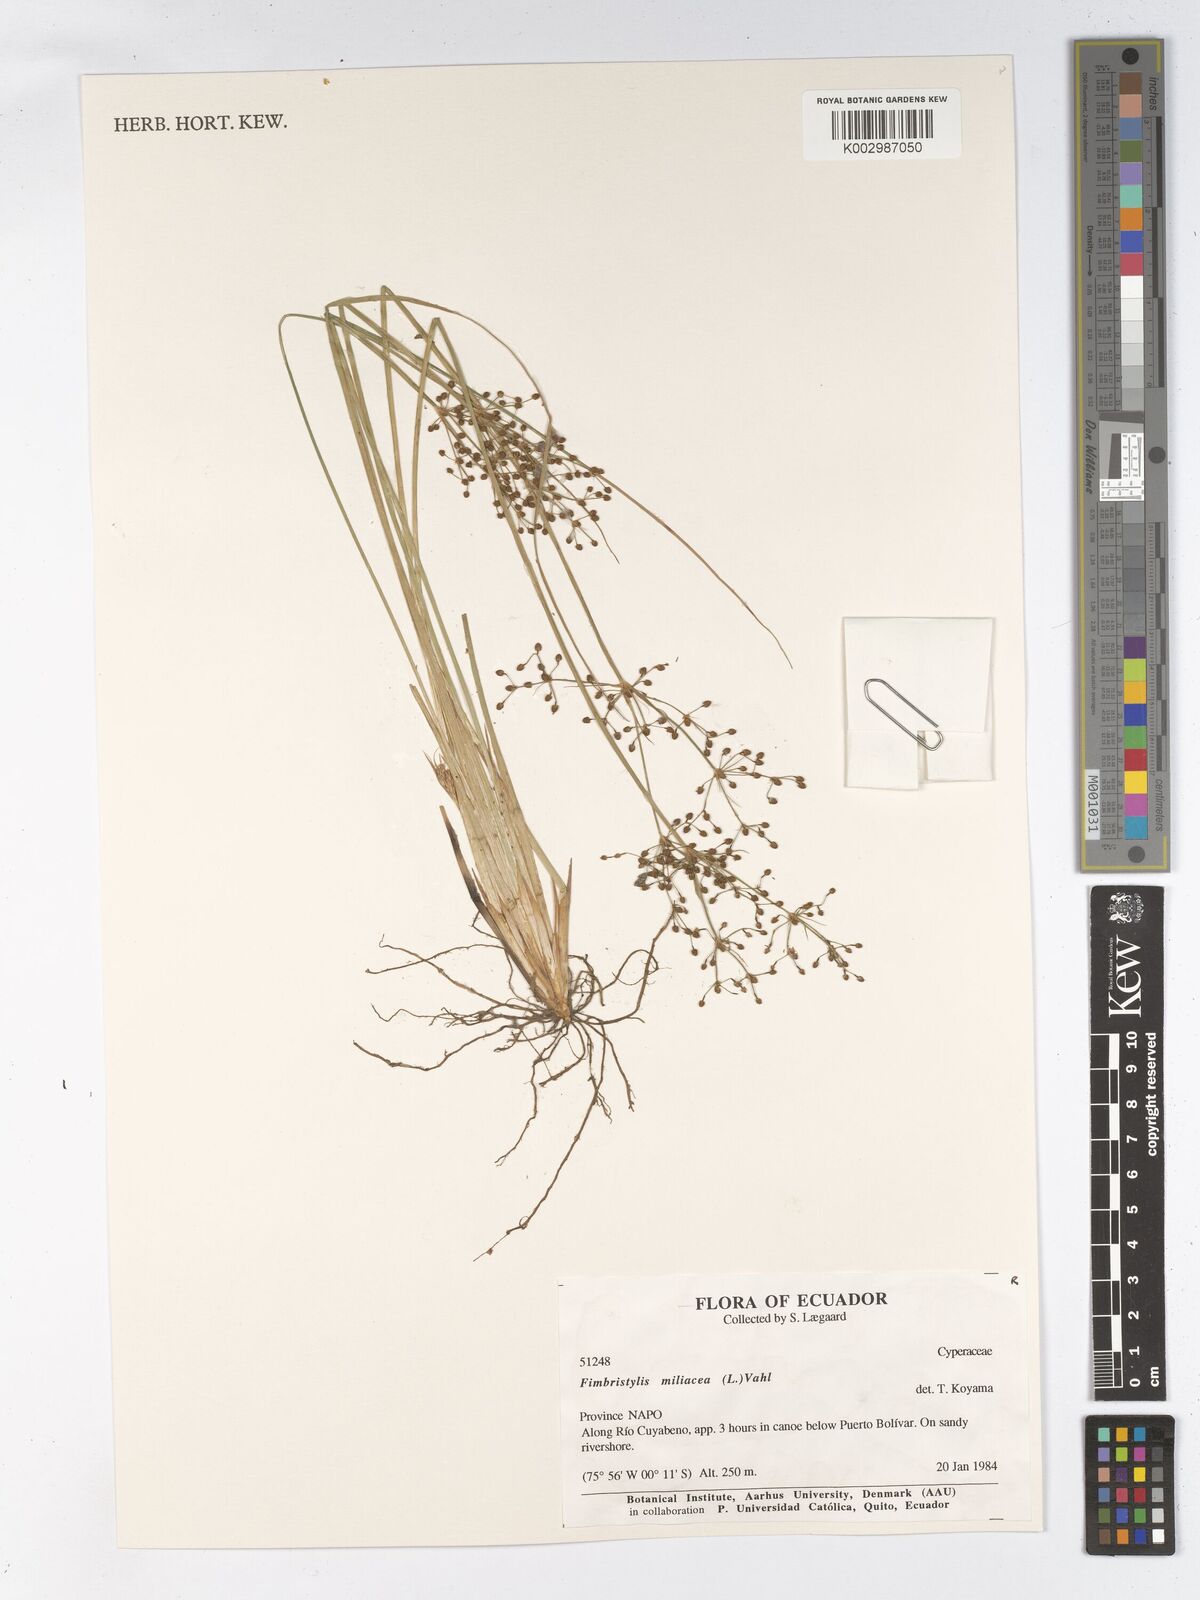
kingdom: Plantae
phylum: Tracheophyta
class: Liliopsida
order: Poales
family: Cyperaceae
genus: Fimbristylis
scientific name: Fimbristylis littoralis
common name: Fimbry
